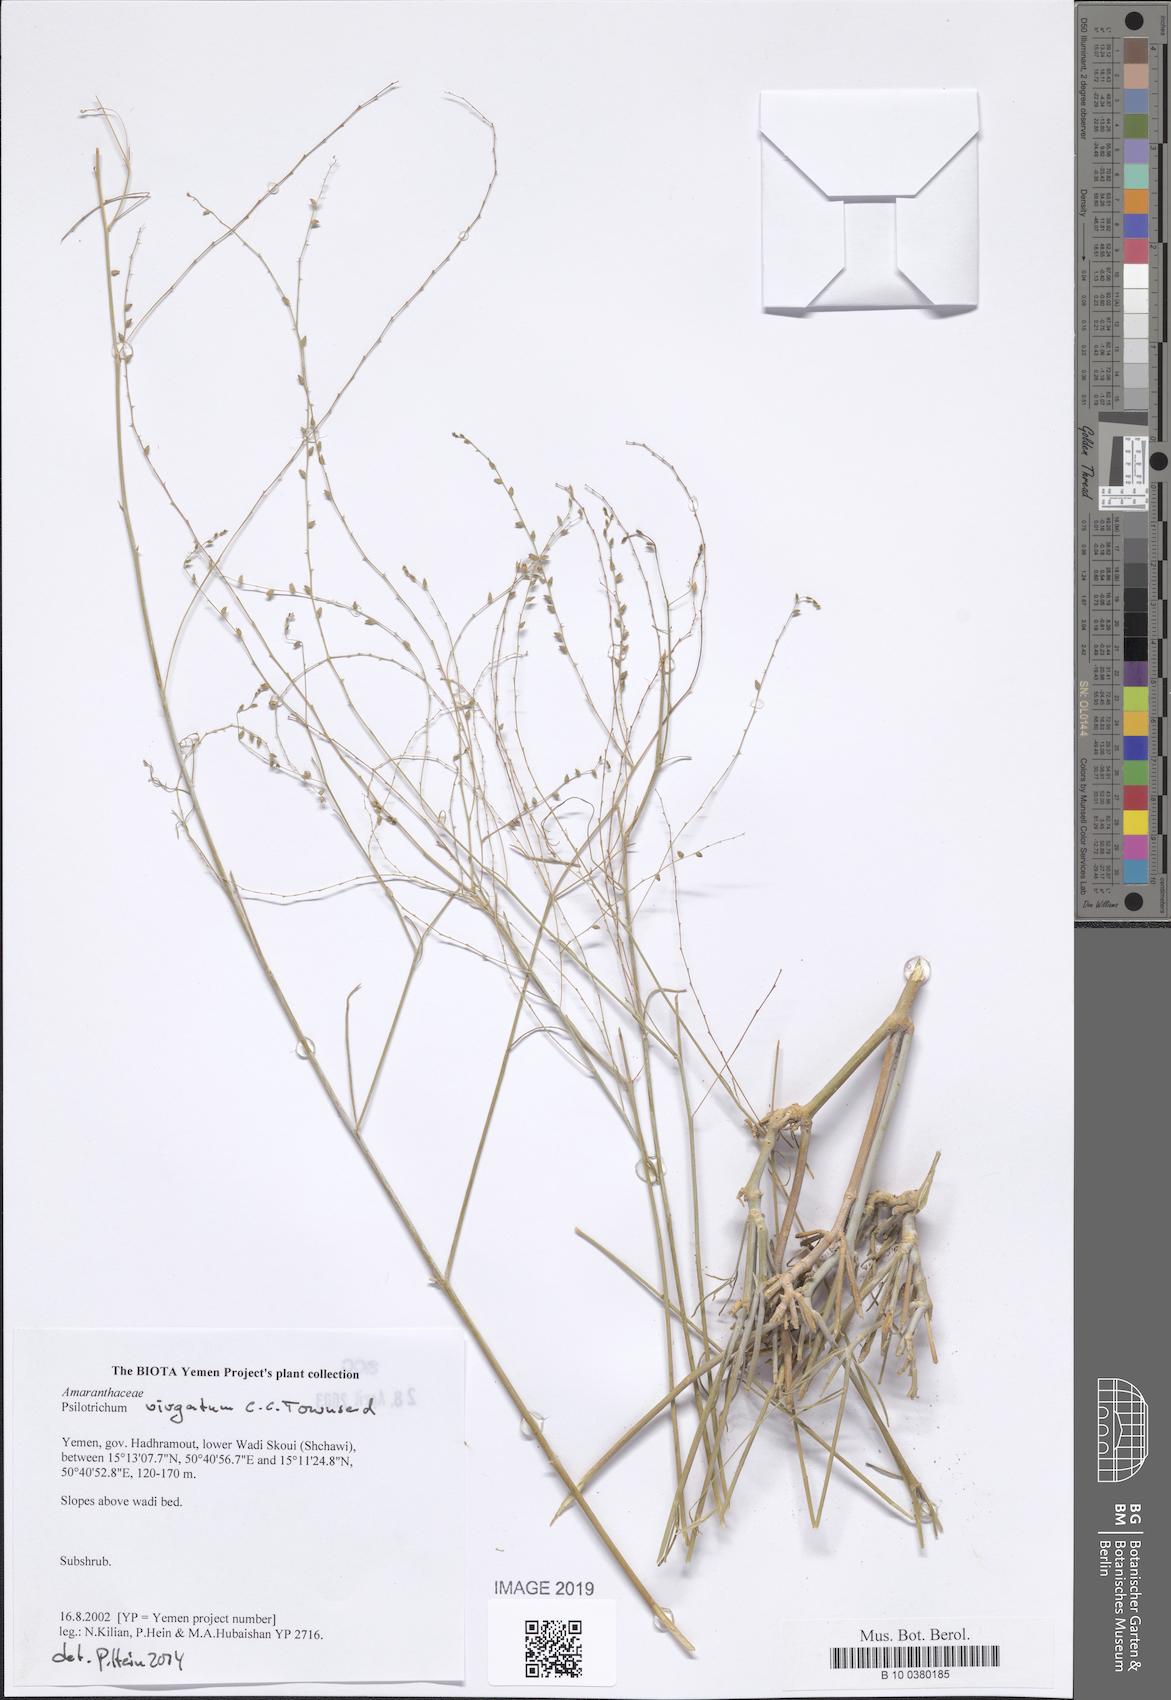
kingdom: Plantae
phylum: Tracheophyta
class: Magnoliopsida
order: Caryophyllales
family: Amaranthaceae
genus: Psilotrichum
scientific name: Psilotrichum
